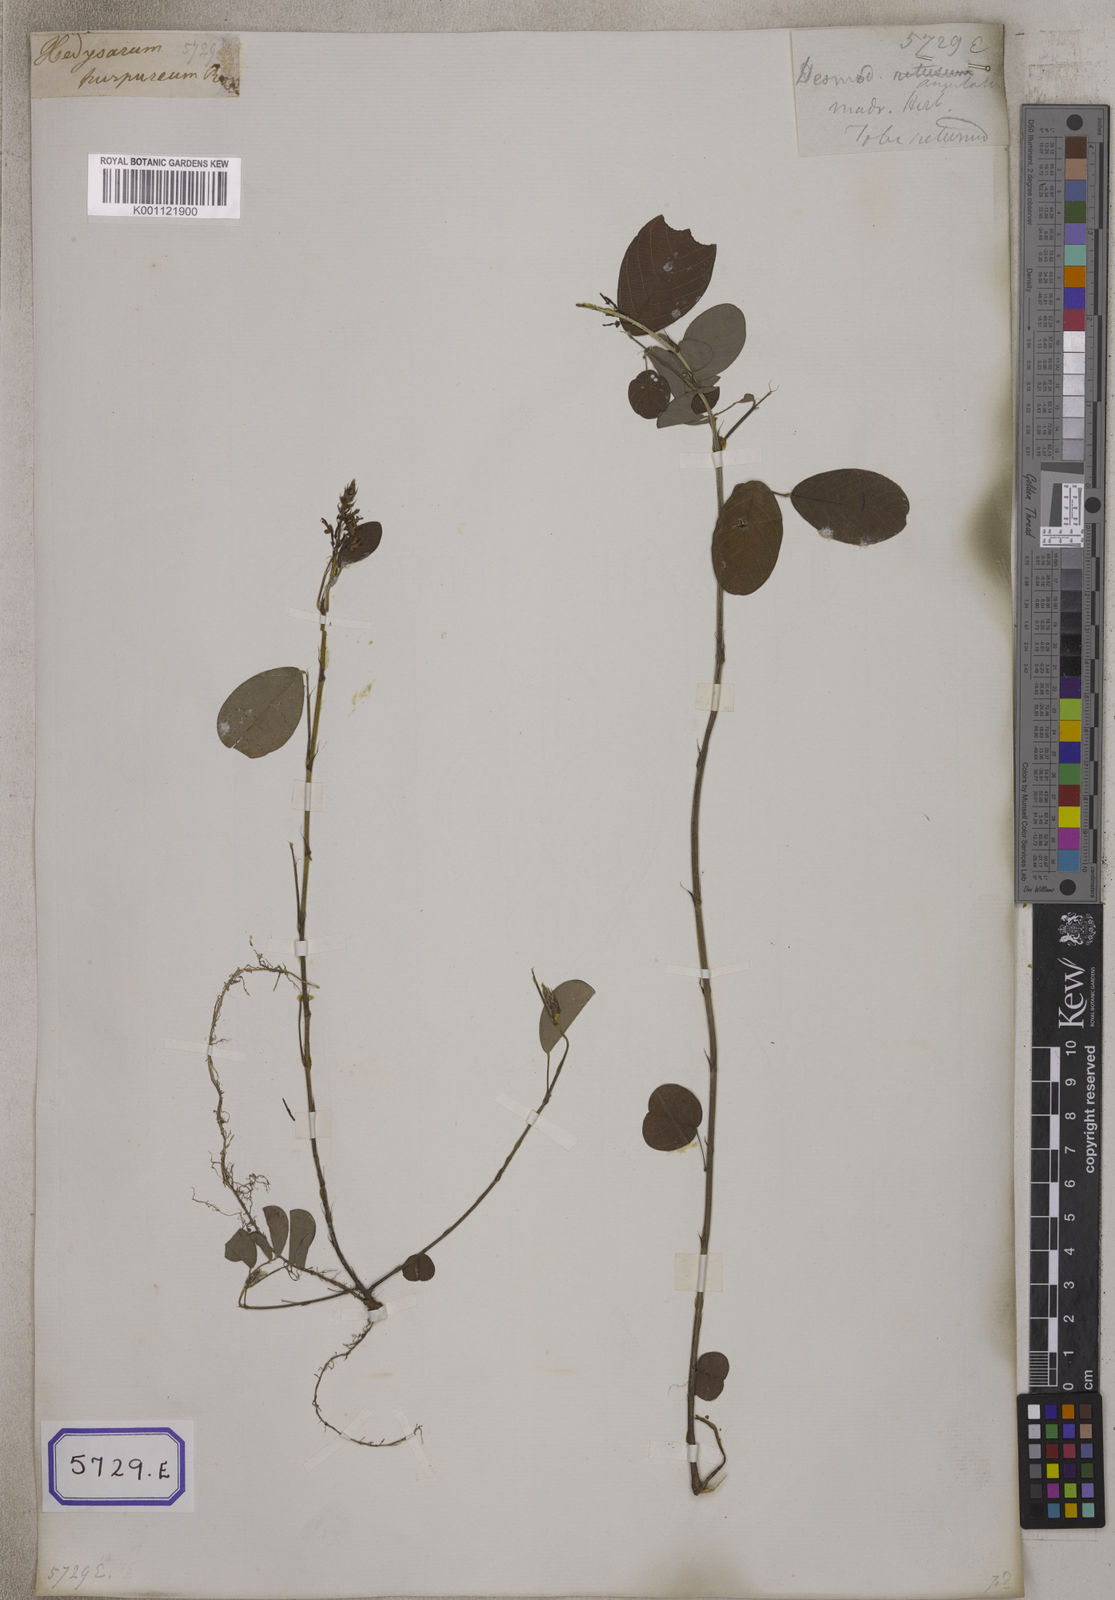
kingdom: Plantae
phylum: Tracheophyta
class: Magnoliopsida
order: Fabales
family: Fabaceae
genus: Desmodium
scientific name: Desmodium
